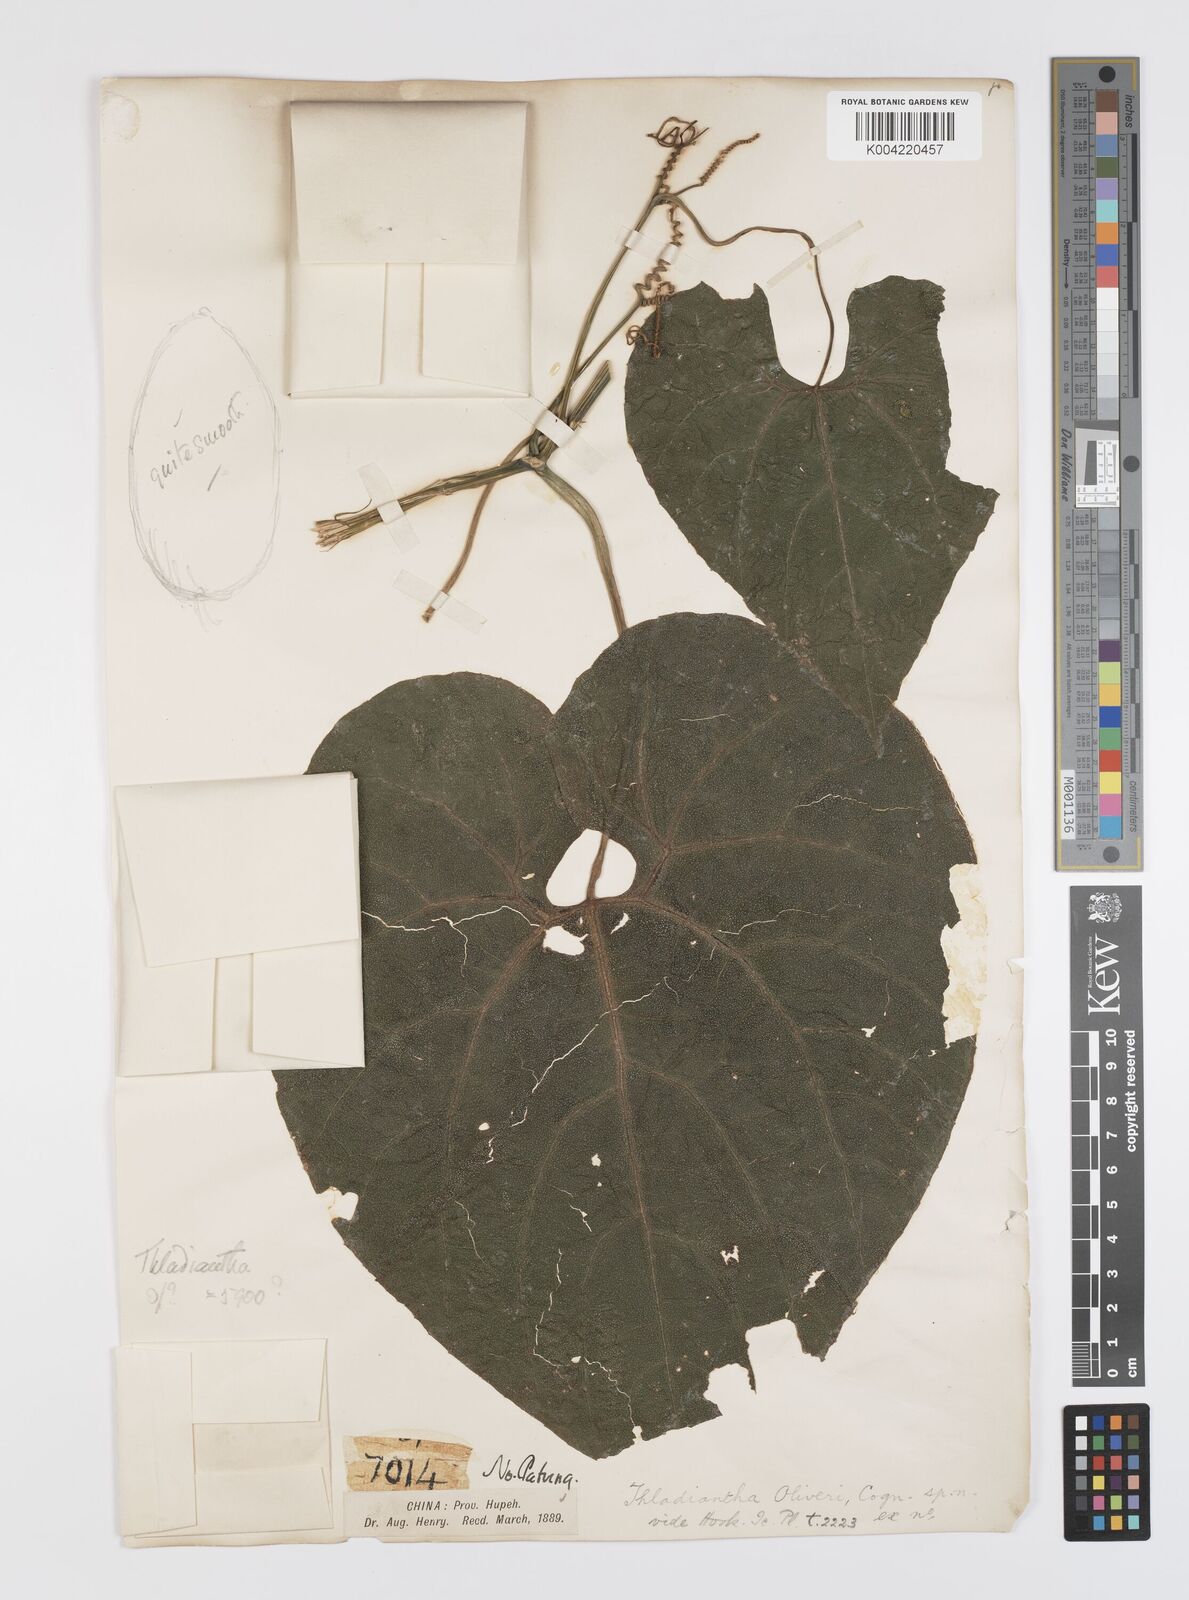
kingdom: Plantae
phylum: Tracheophyta
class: Magnoliopsida
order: Cucurbitales
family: Cucurbitaceae
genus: Thladiantha
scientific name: Thladiantha montana
